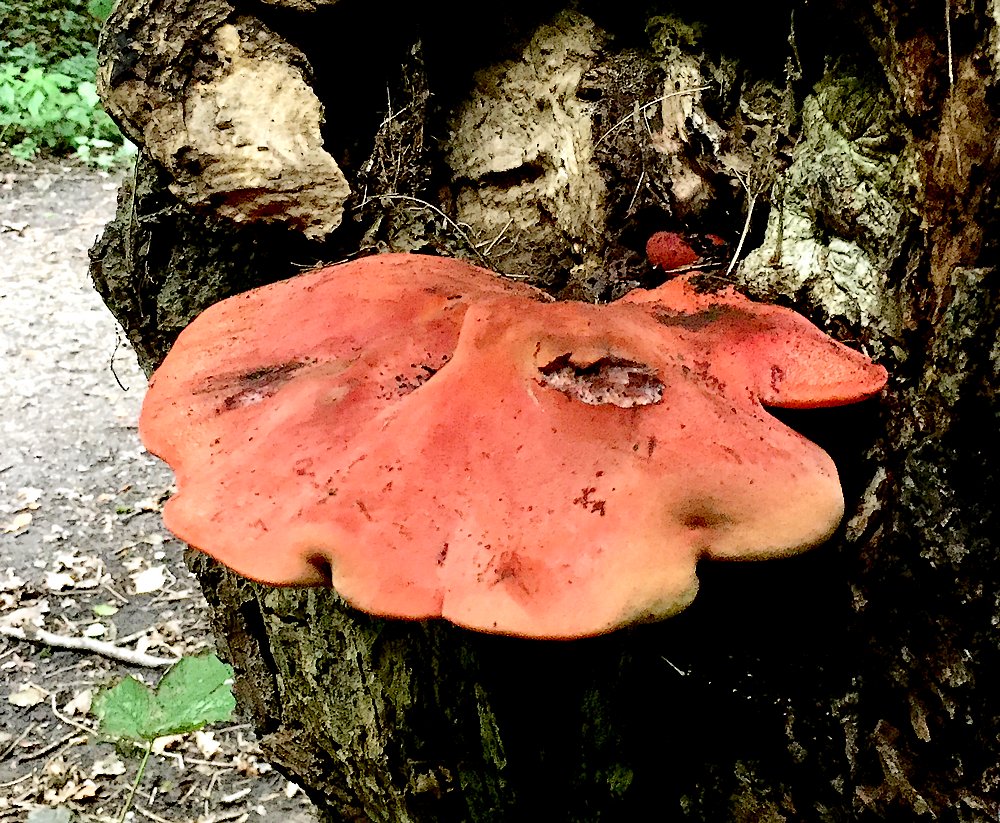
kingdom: Fungi
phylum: Basidiomycota
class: Agaricomycetes
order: Agaricales
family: Fistulinaceae
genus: Fistulina
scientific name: Fistulina hepatica
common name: oksetunge
